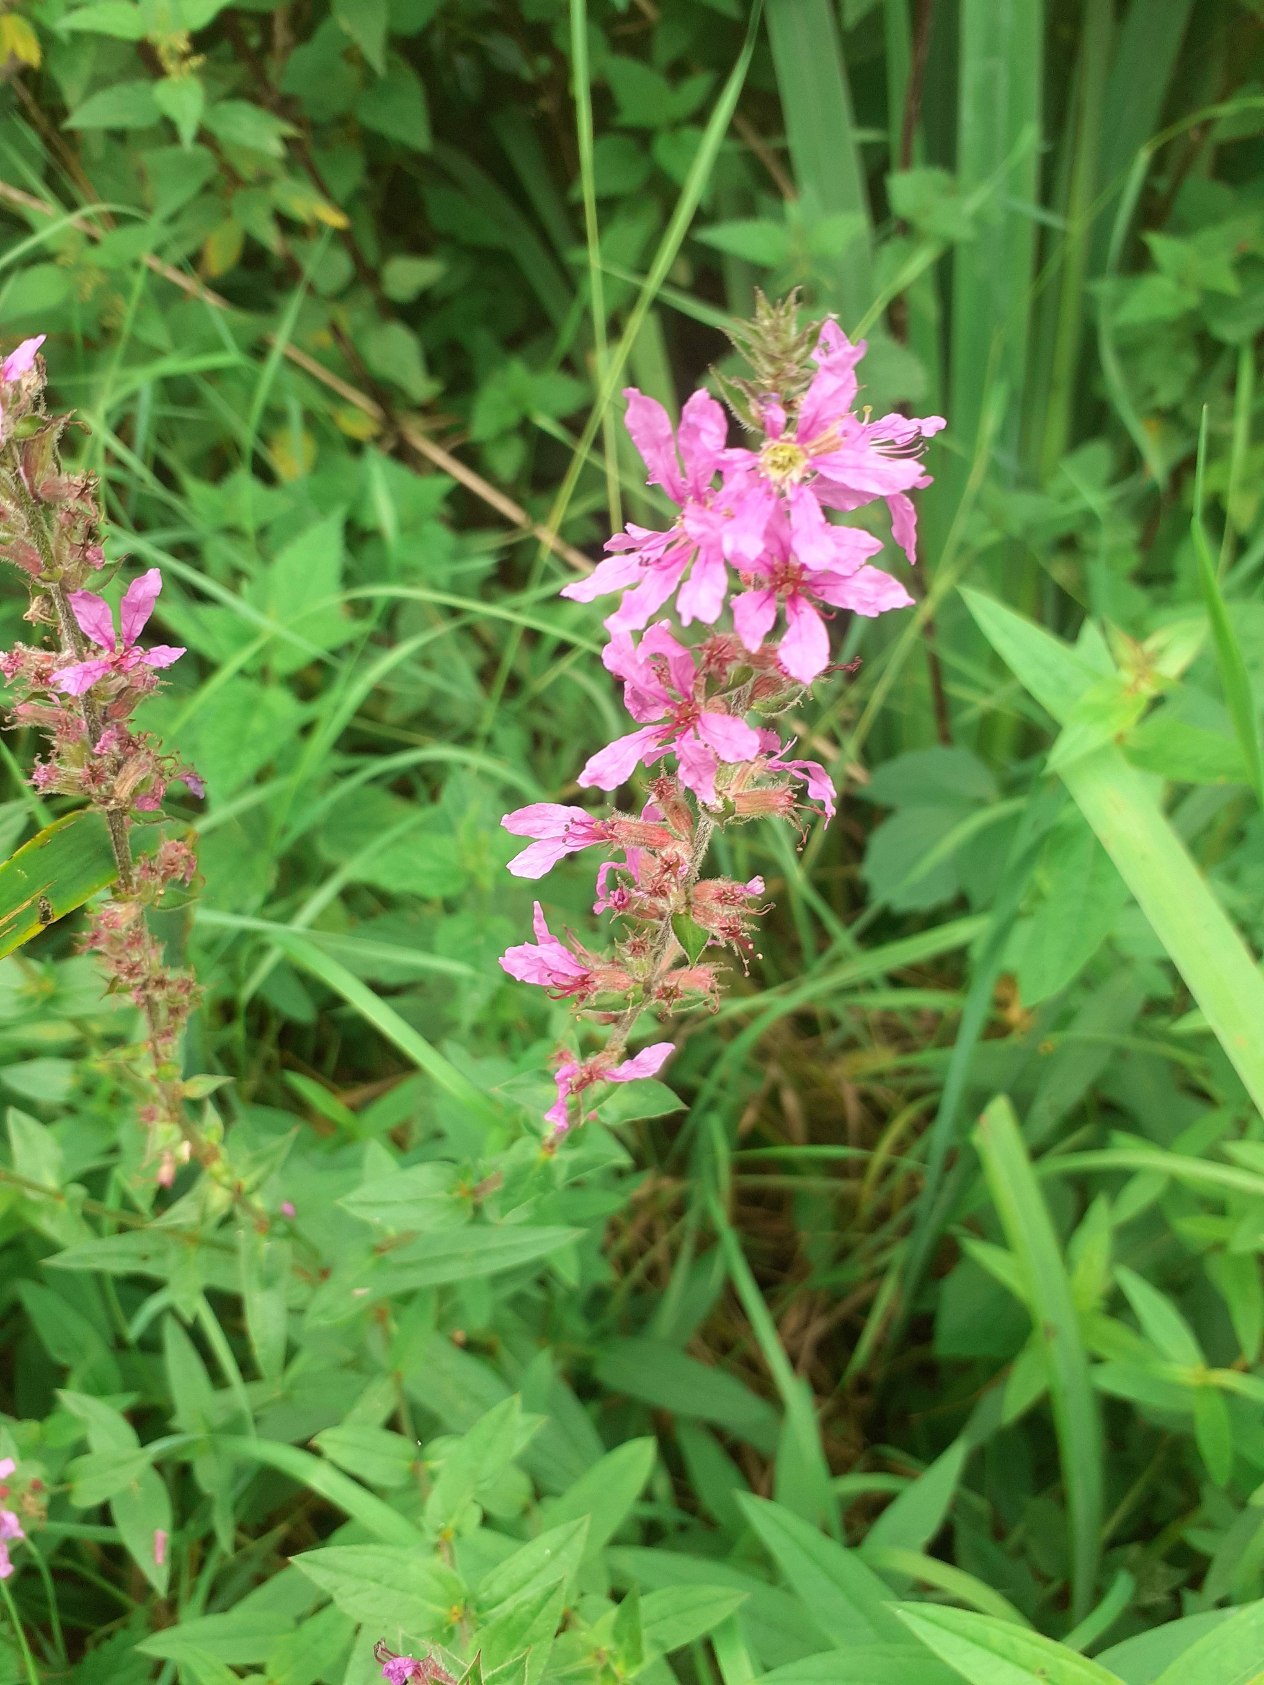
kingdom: Plantae
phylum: Tracheophyta
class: Magnoliopsida
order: Myrtales
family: Lythraceae
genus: Lythrum
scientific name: Lythrum salicaria
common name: Kattehale
